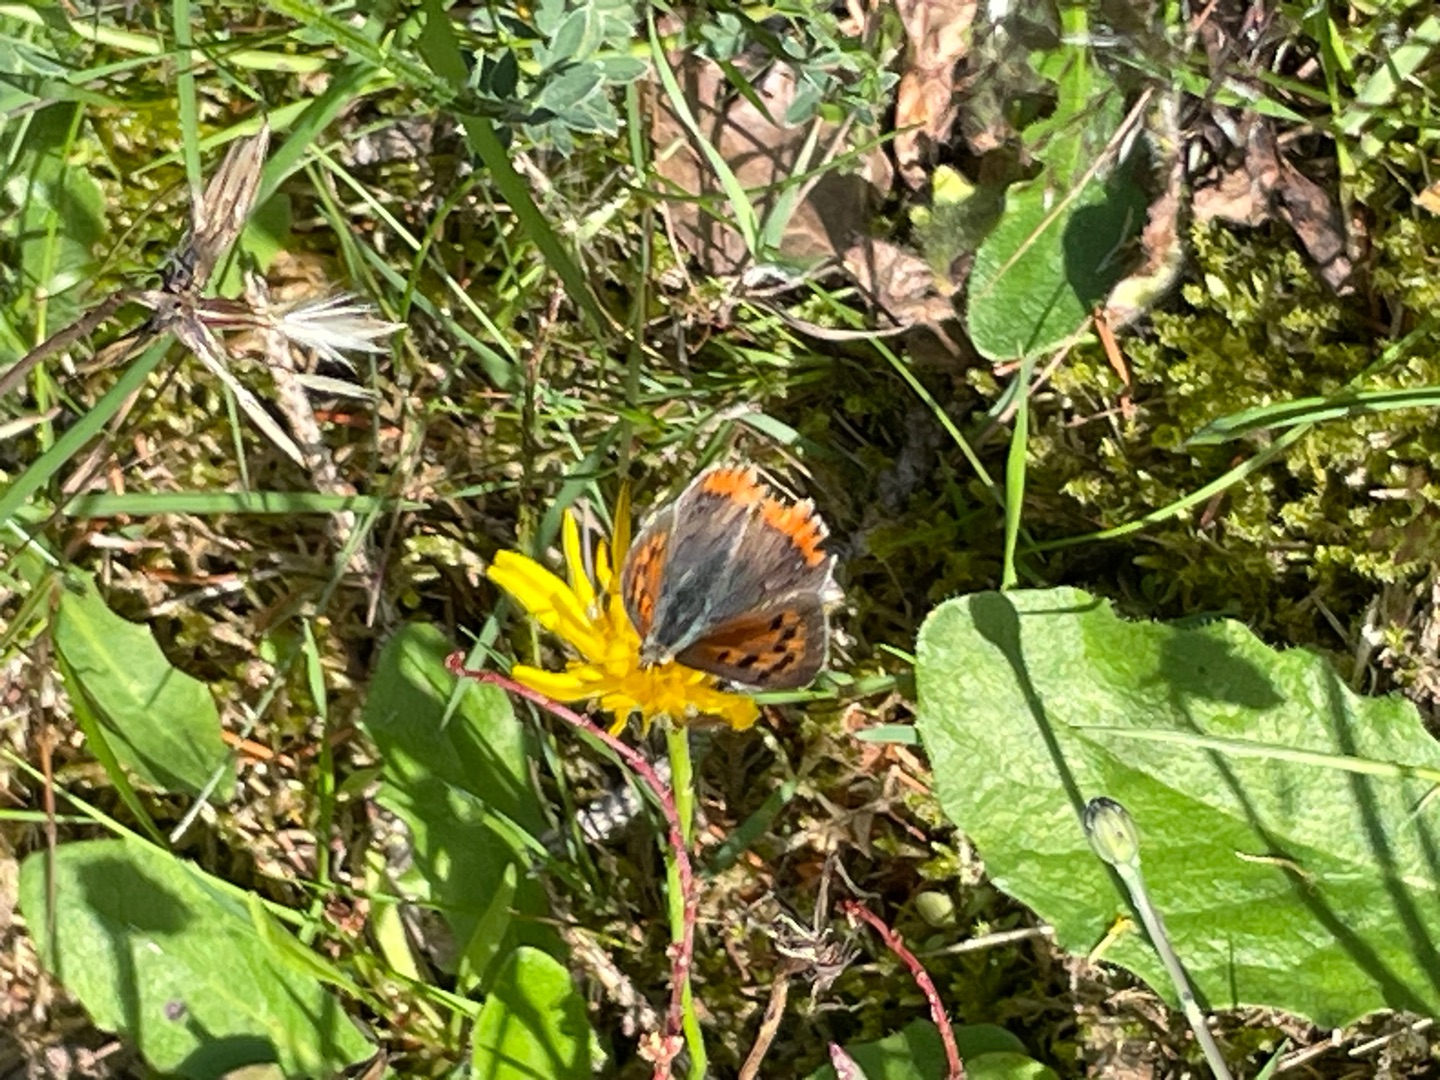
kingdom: Animalia
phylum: Arthropoda
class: Insecta
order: Lepidoptera
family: Lycaenidae
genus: Lycaena
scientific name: Lycaena phlaeas
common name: Lille ildfugl
